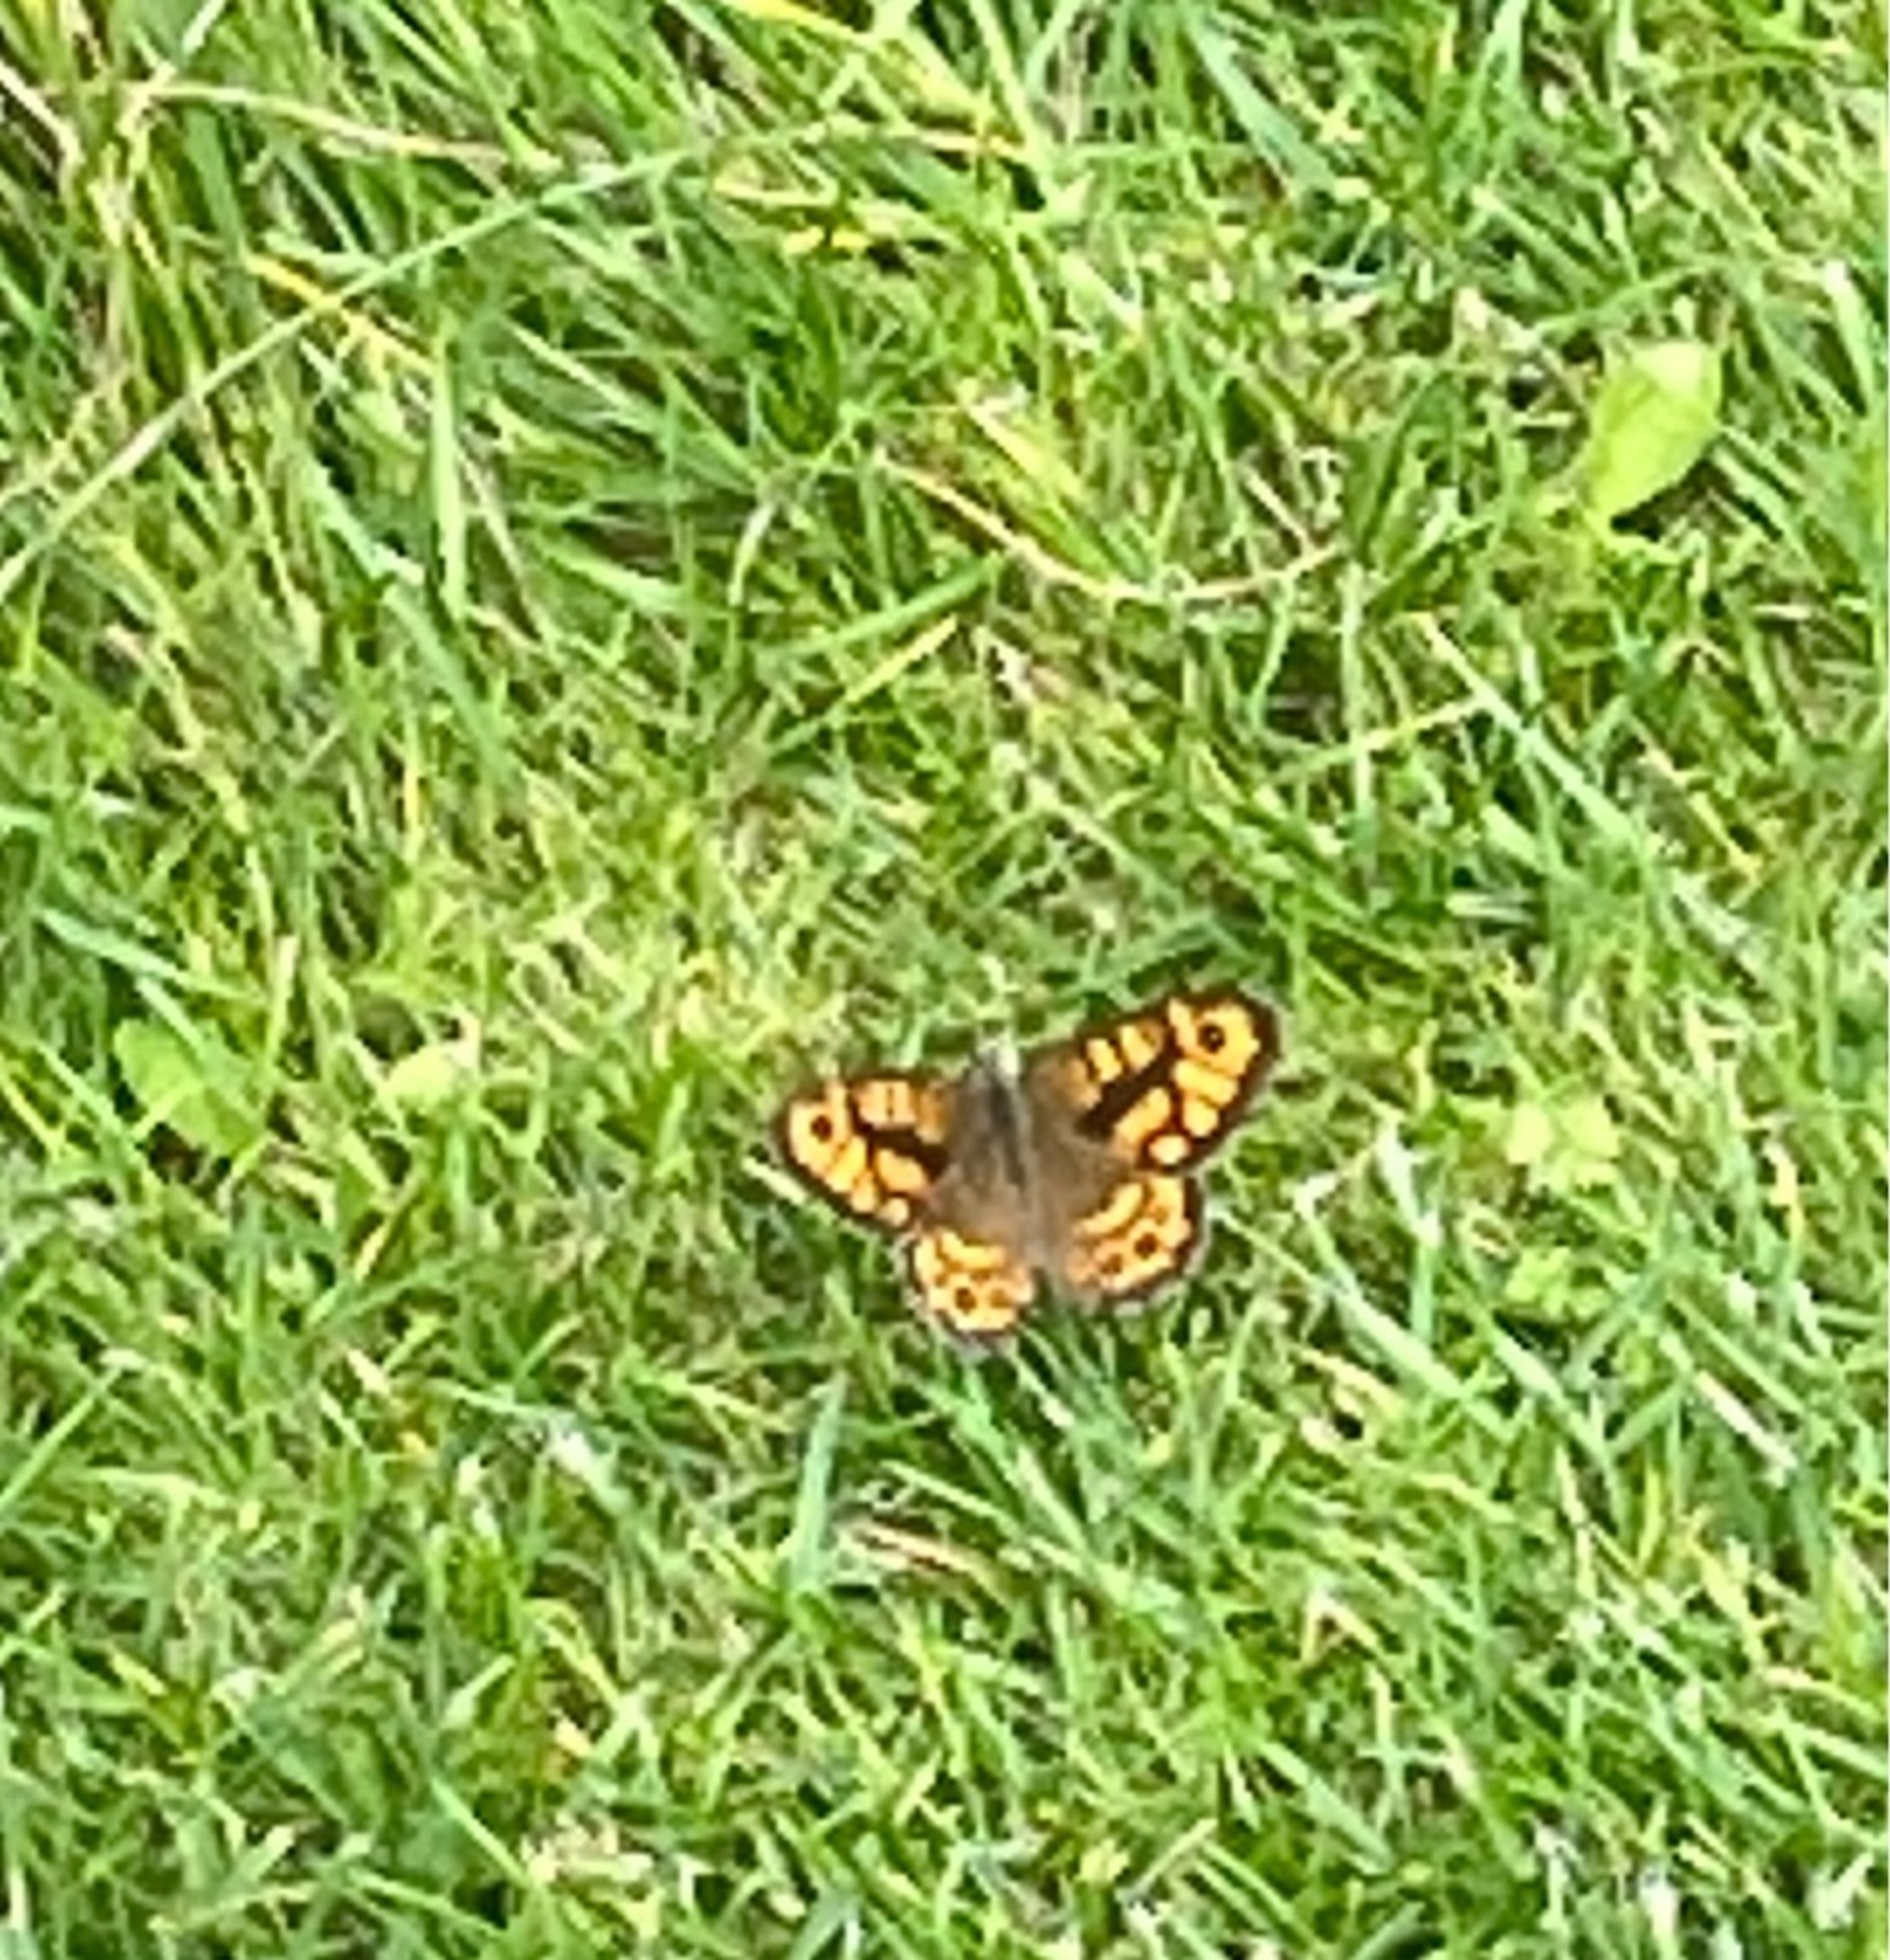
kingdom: Animalia
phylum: Arthropoda
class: Insecta
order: Lepidoptera
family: Nymphalidae
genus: Pararge
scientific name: Pararge Lasiommata megera
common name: Vejrandøje
